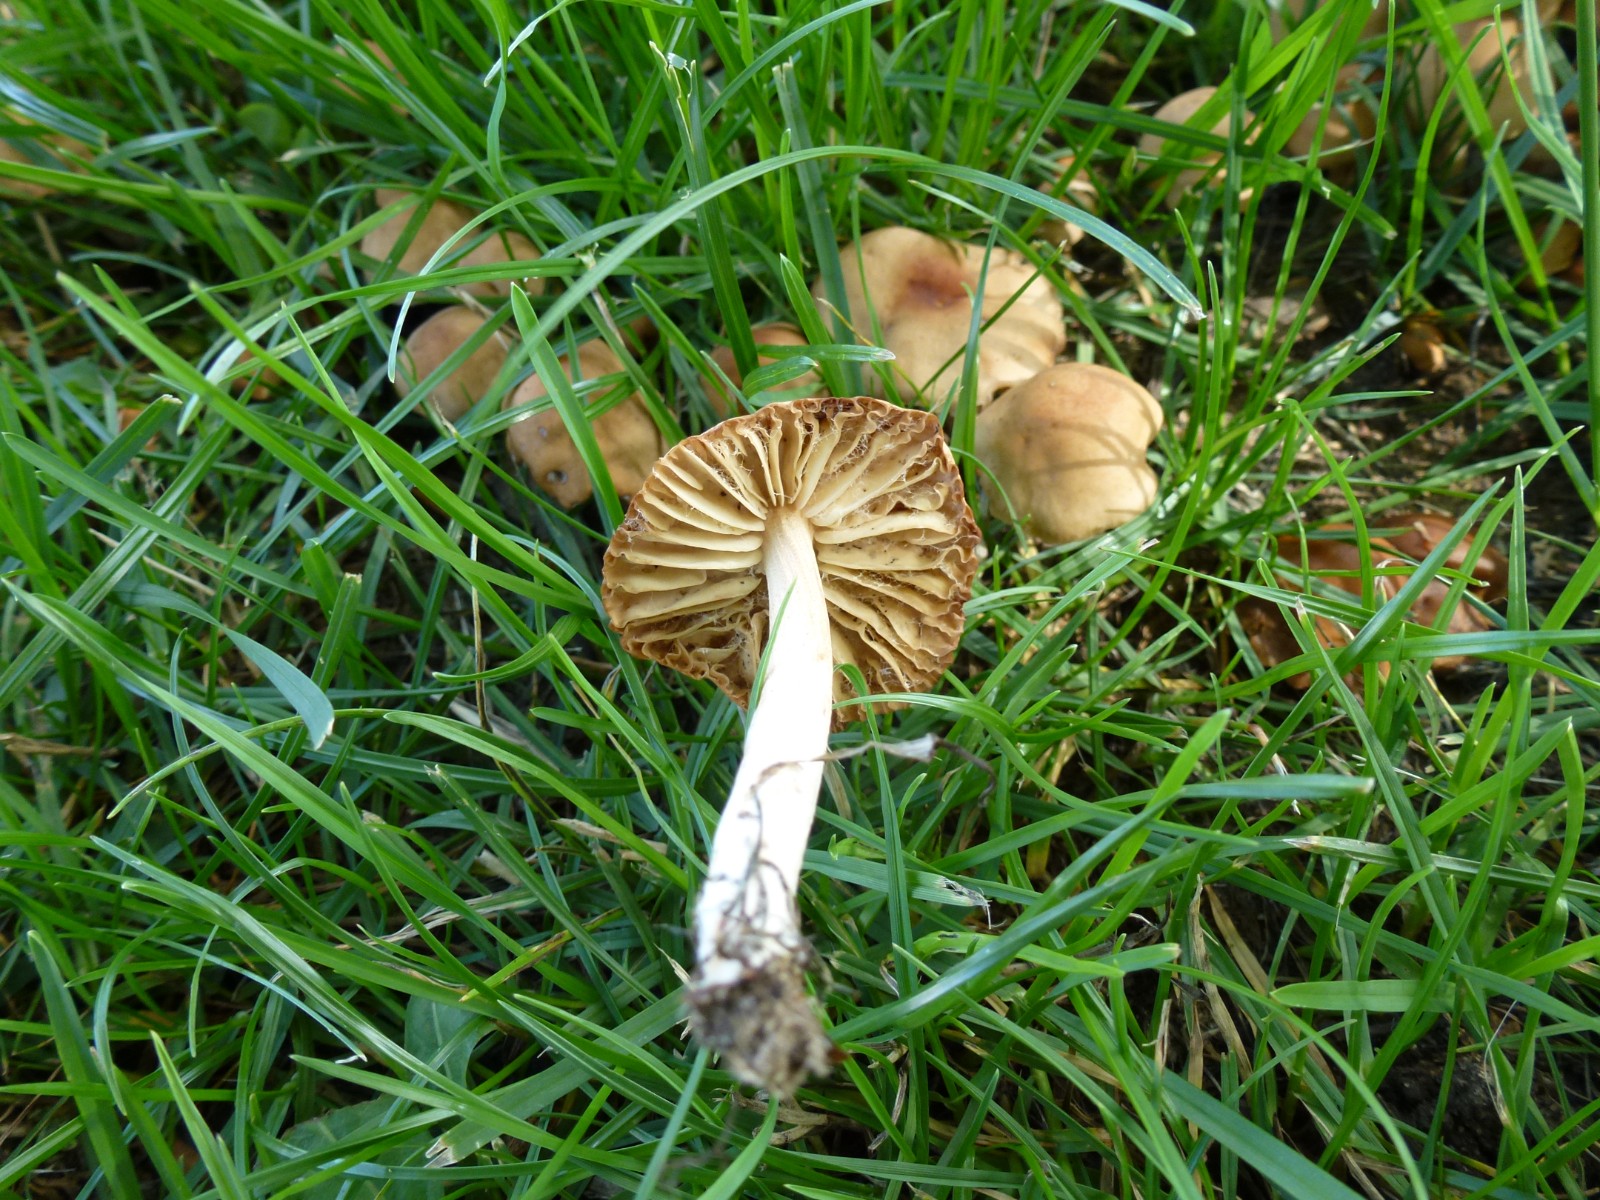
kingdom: Fungi
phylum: Basidiomycota
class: Agaricomycetes
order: Agaricales
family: Marasmiaceae
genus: Marasmius
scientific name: Marasmius oreades
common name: elledans-bruskhat
